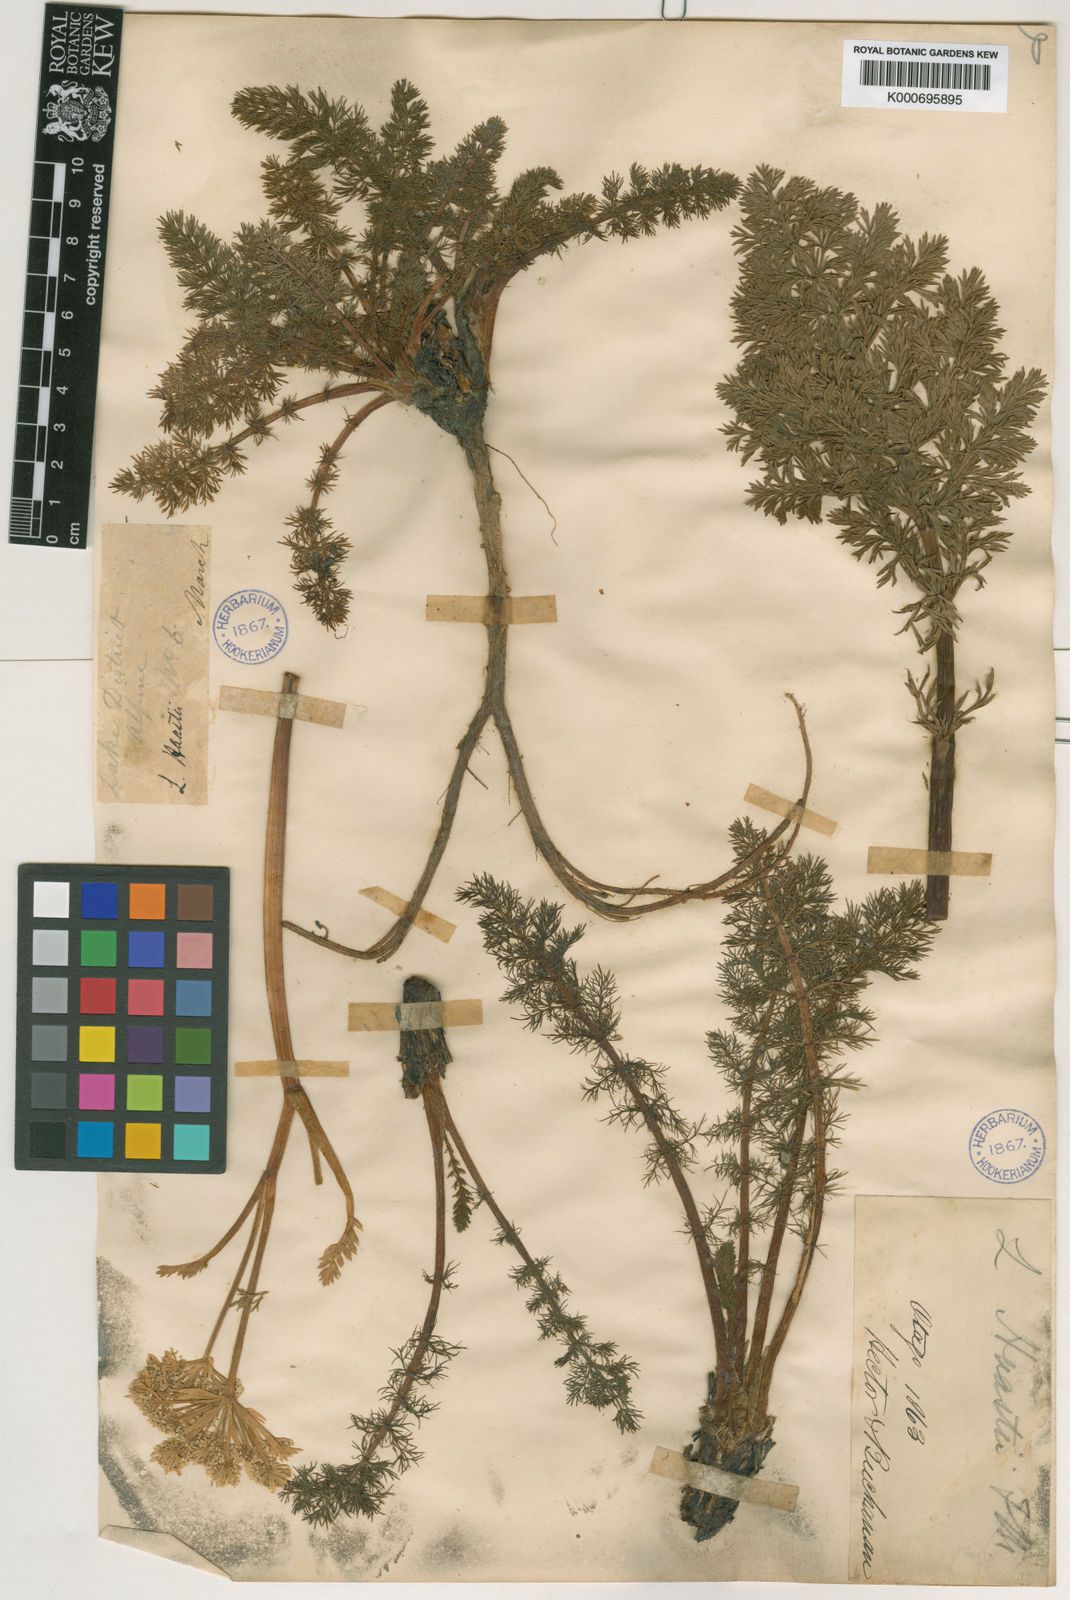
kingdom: Plantae
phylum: Tracheophyta
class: Magnoliopsida
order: Apiales
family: Apiaceae
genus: Anisotome
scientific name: Anisotome haastii
